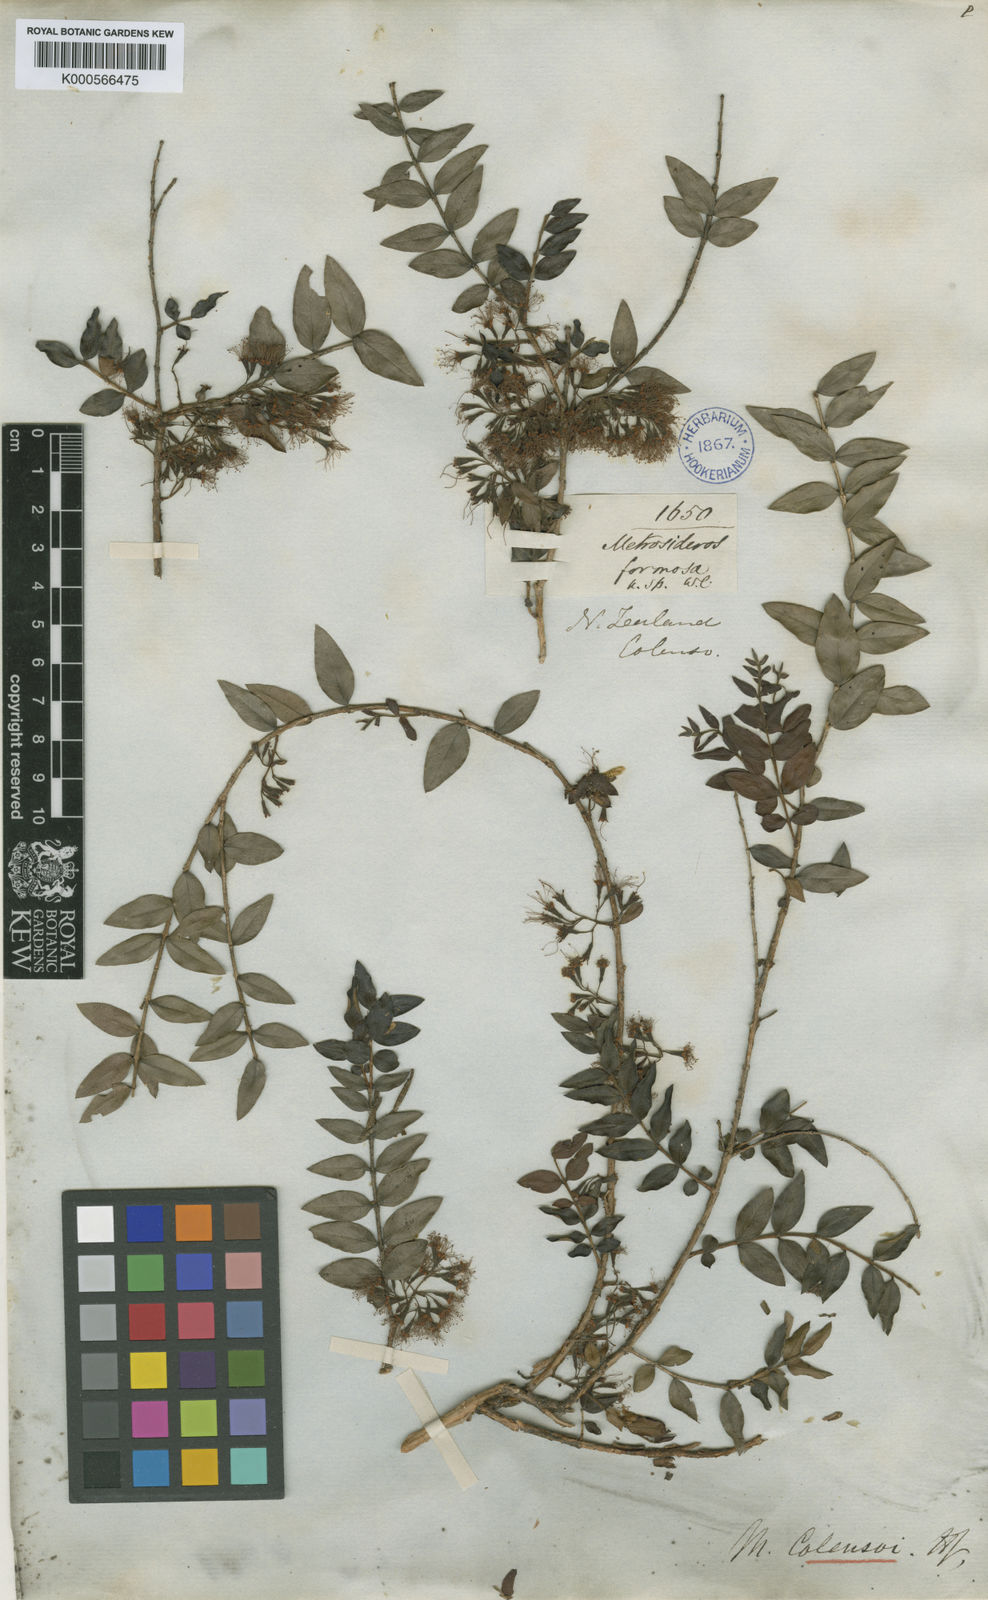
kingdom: Plantae
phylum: Tracheophyta
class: Magnoliopsida
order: Myrtales
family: Myrtaceae
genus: Metrosideros
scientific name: Metrosideros colensoi
